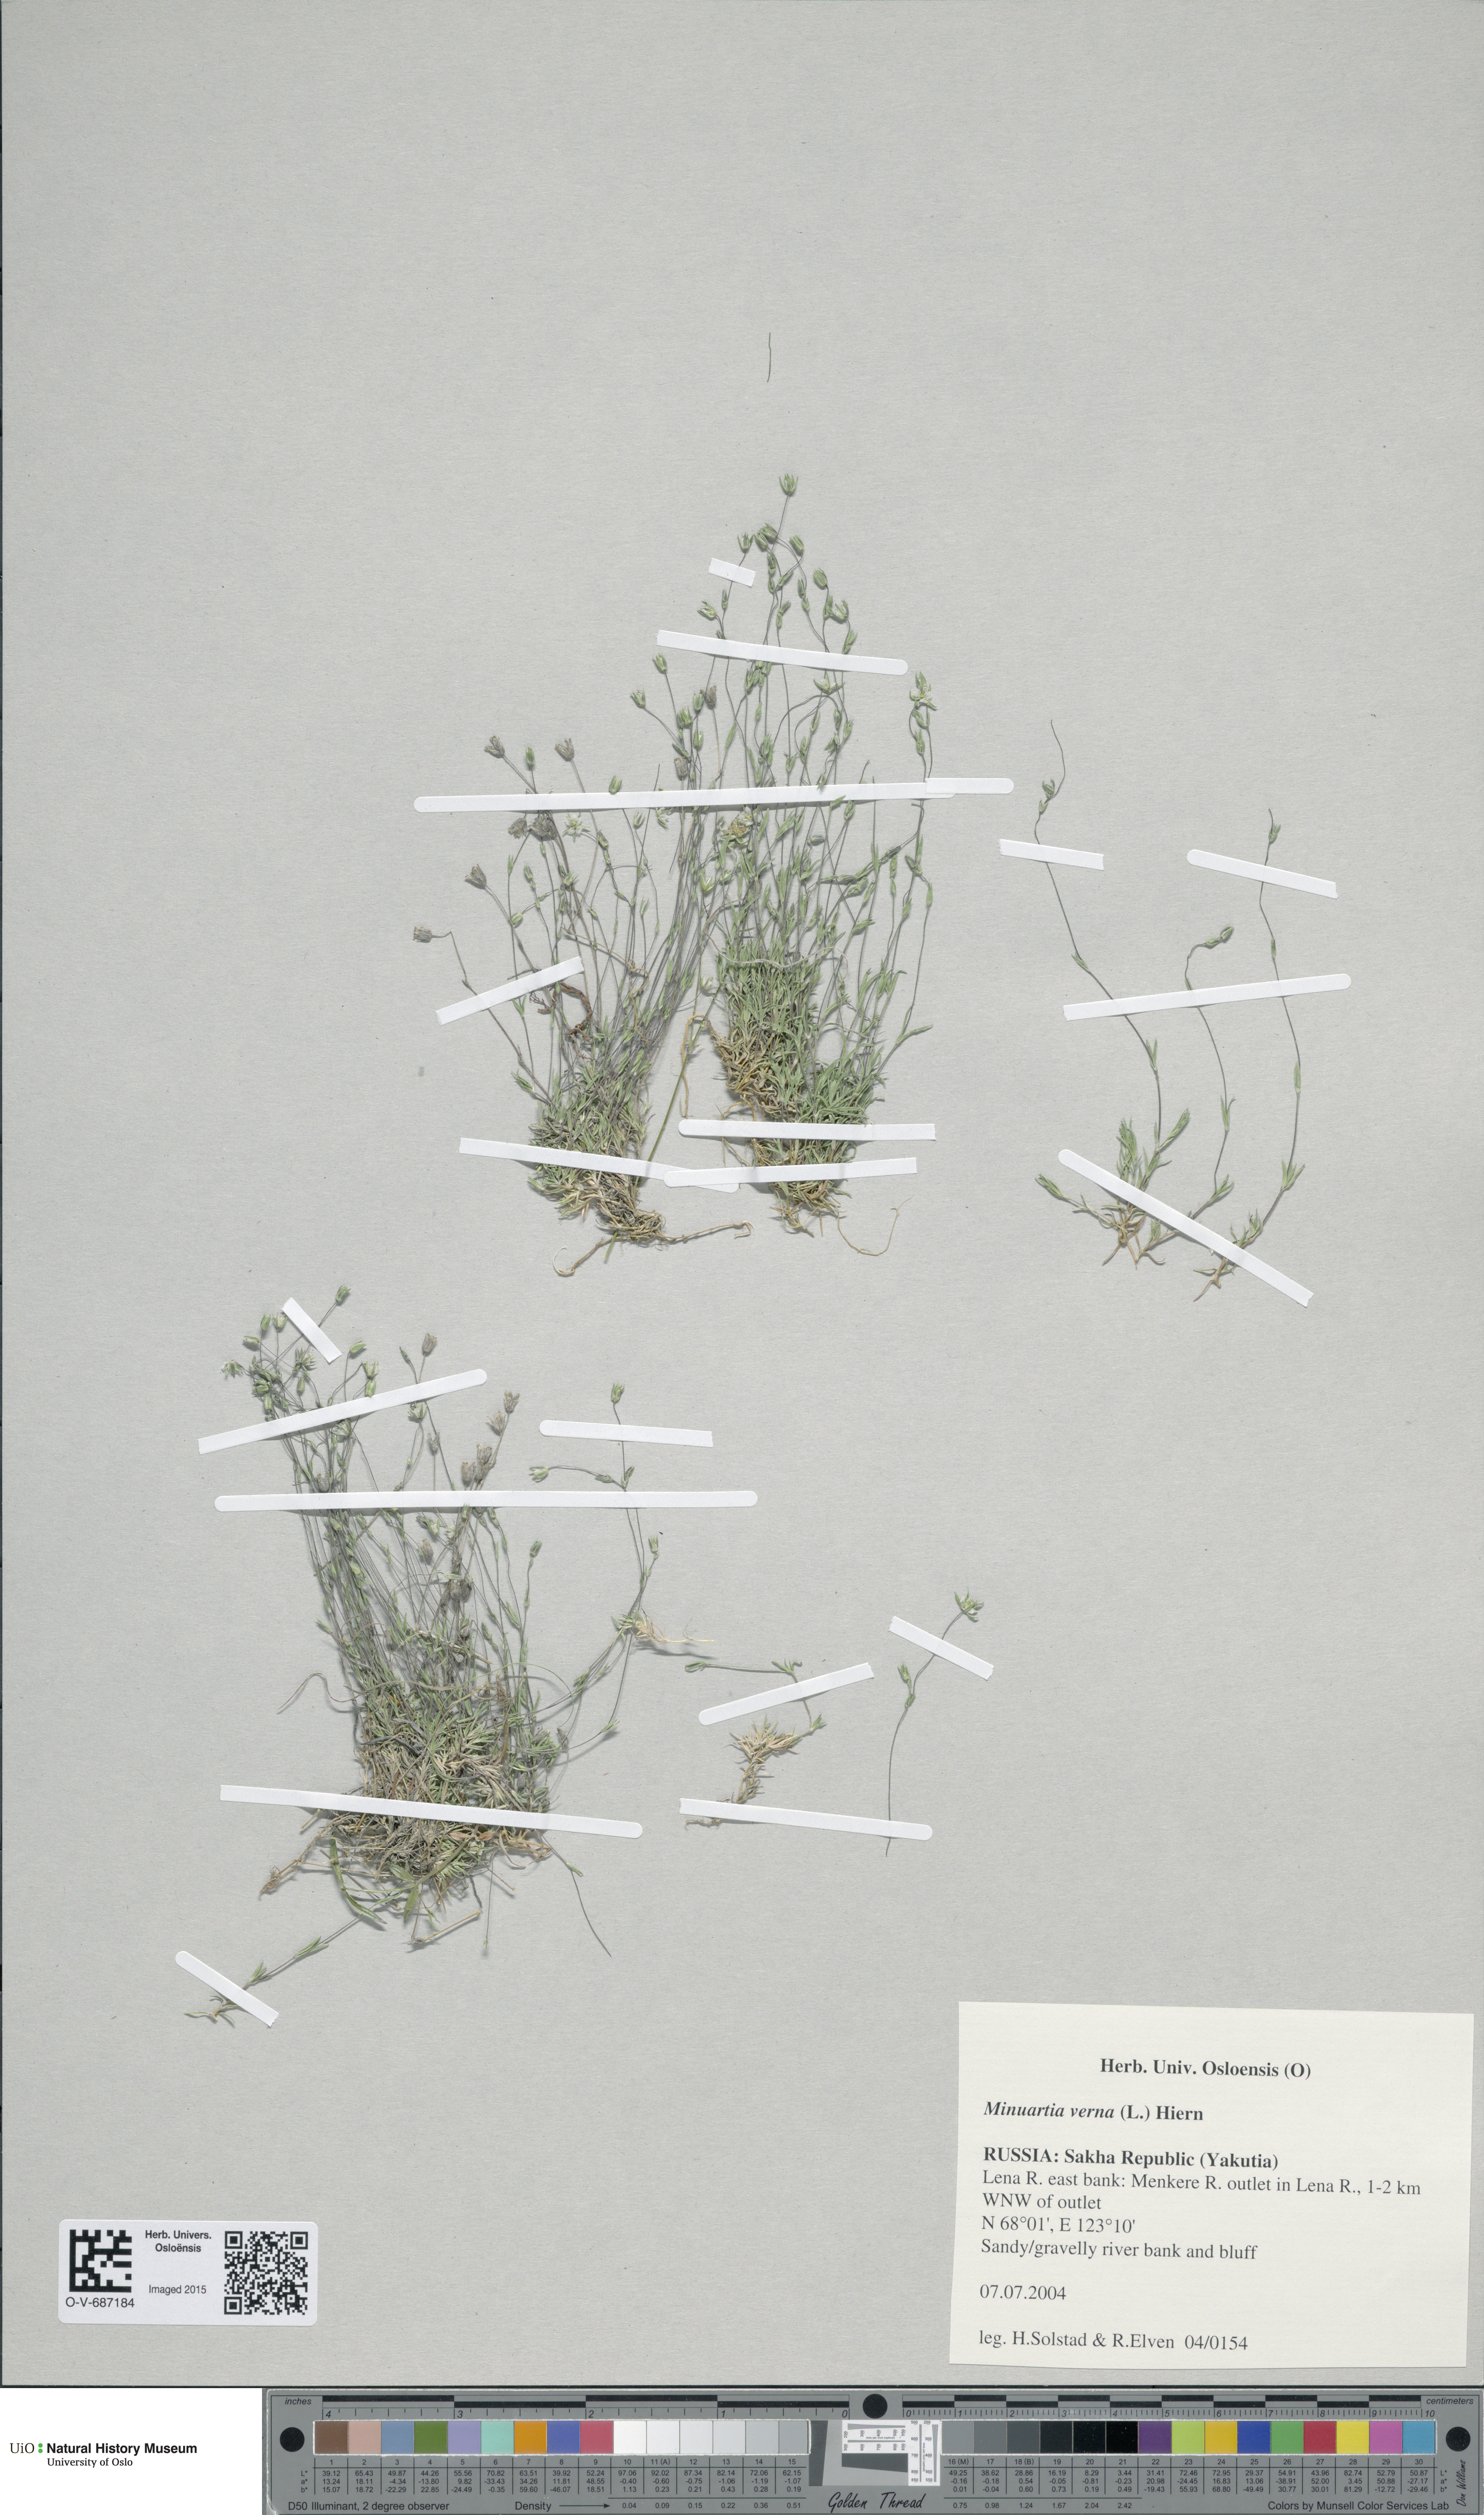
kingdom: Plantae
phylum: Tracheophyta
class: Magnoliopsida
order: Caryophyllales
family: Caryophyllaceae
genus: Sabulina
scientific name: Sabulina verna
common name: Spring sandwort
